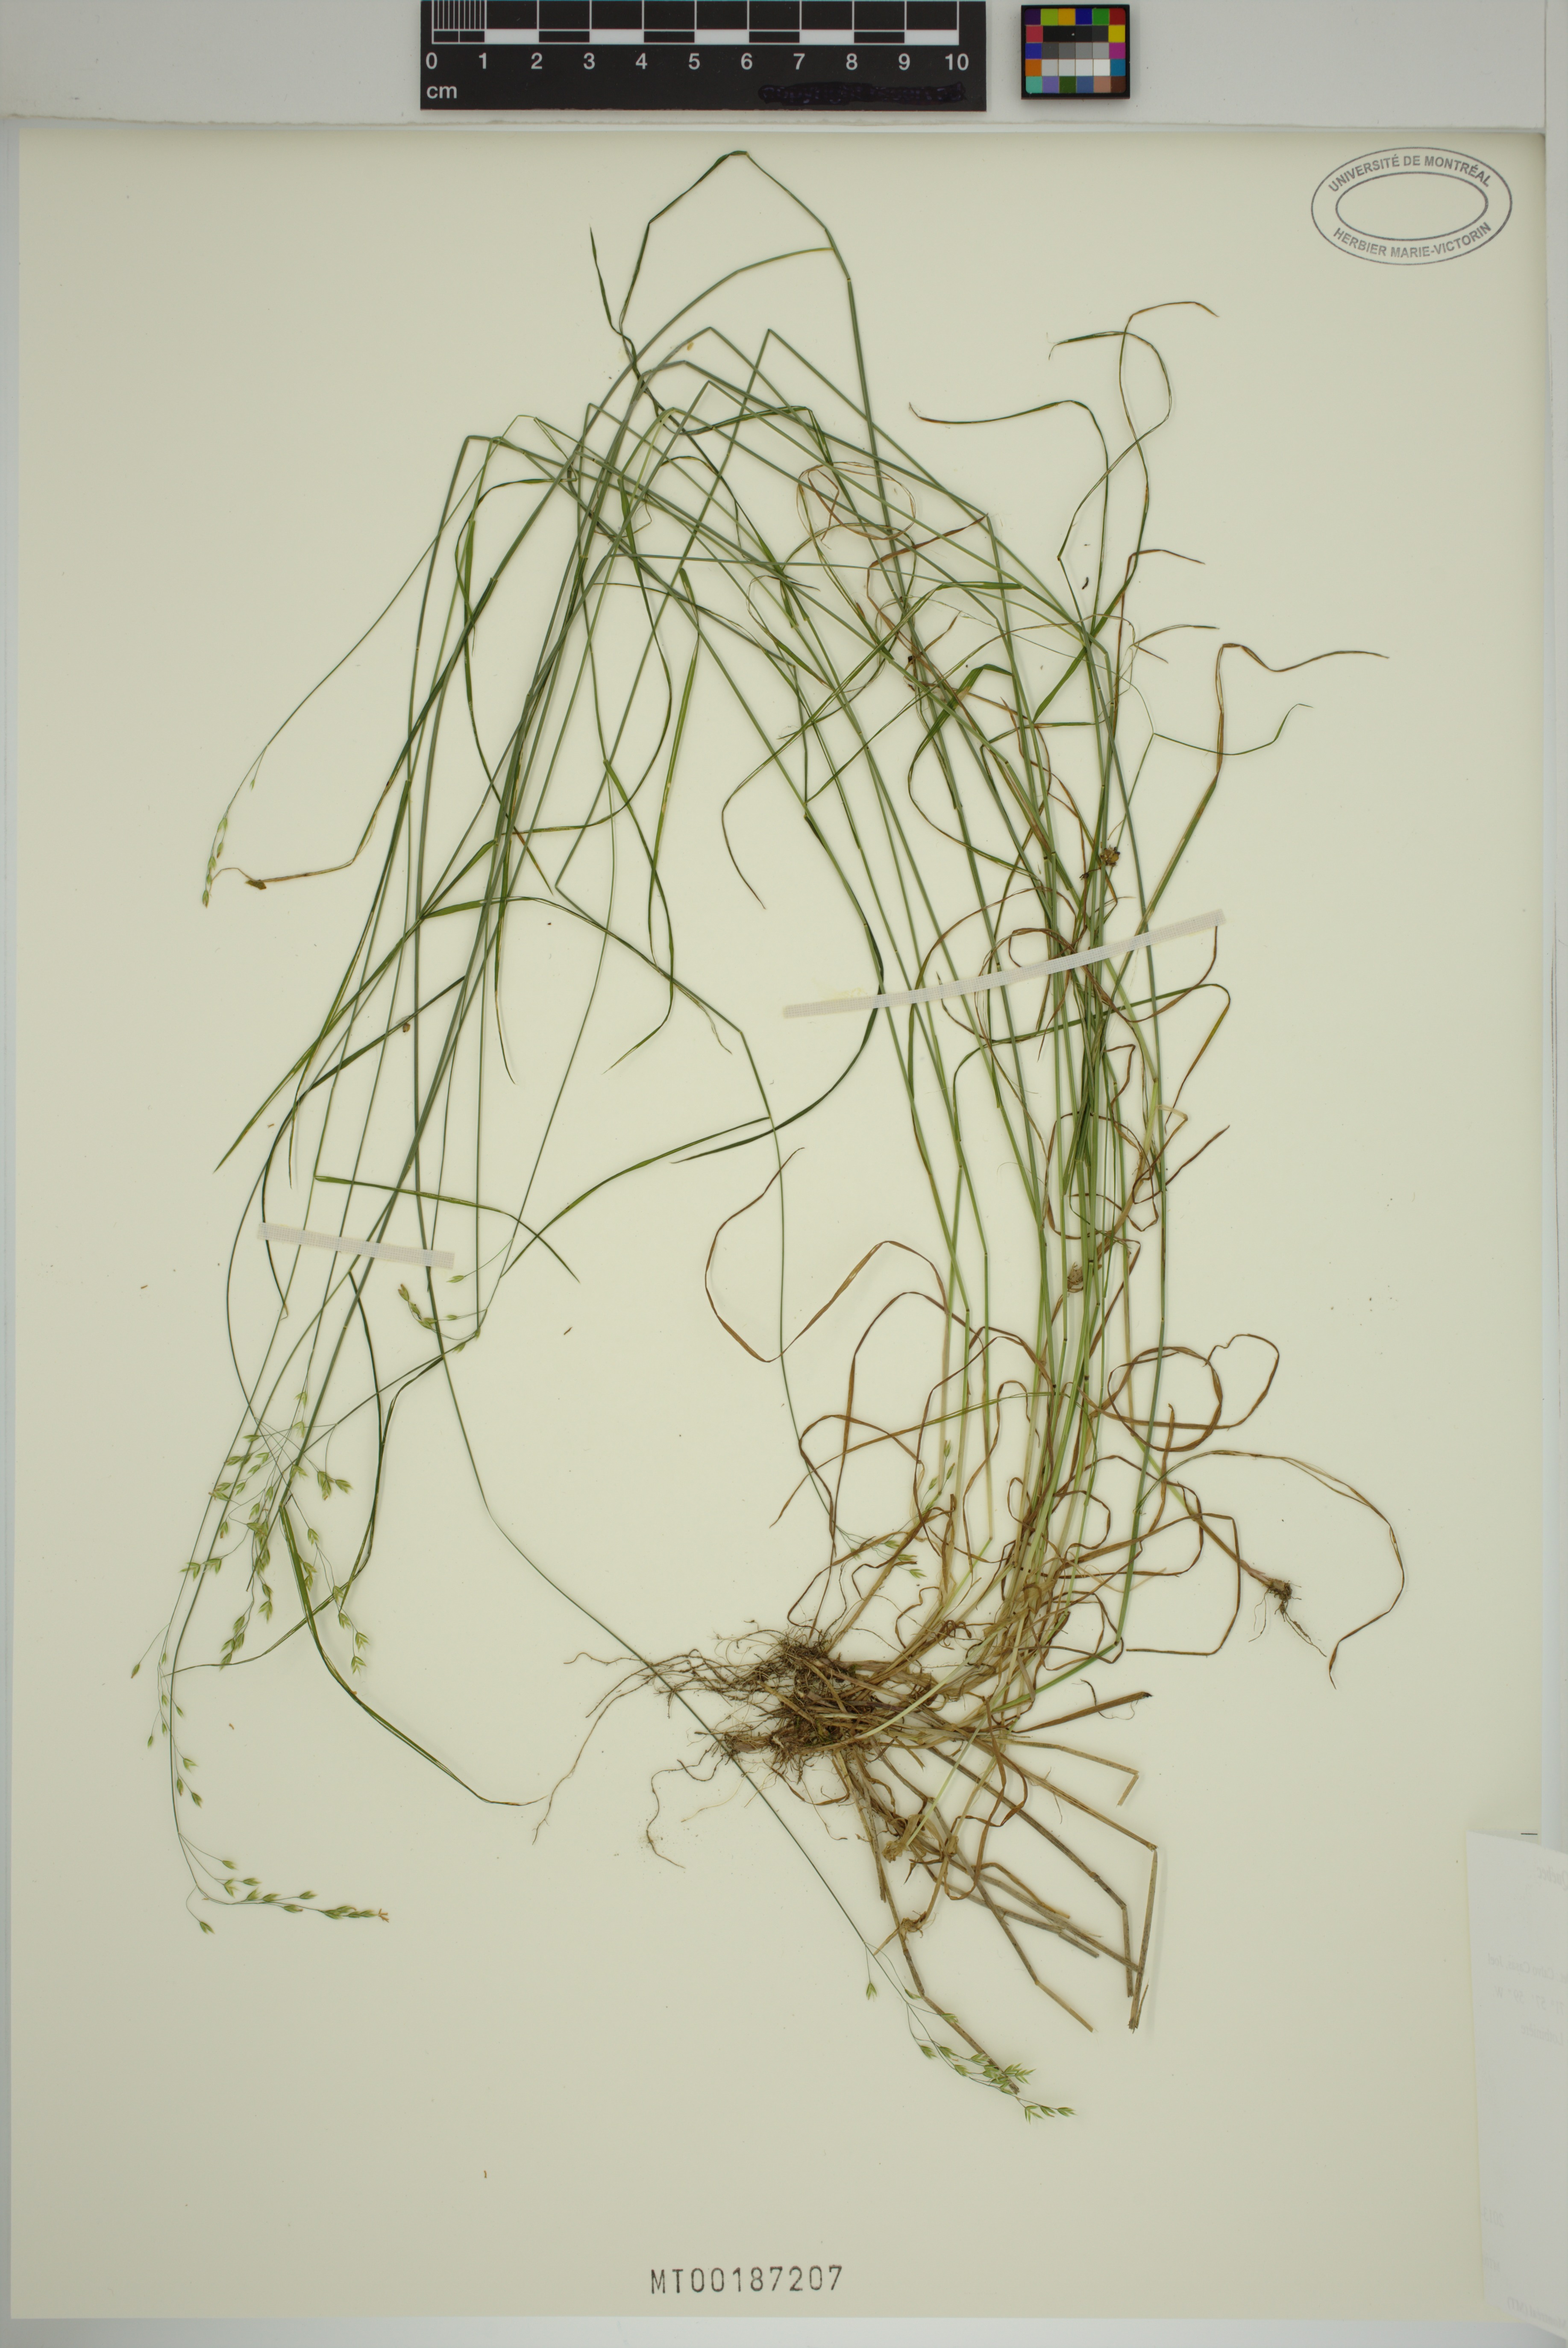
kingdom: Plantae
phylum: Tracheophyta
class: Liliopsida
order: Poales
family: Poaceae
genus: Poa
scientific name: Poa nemoralis
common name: Wood bluegrass
